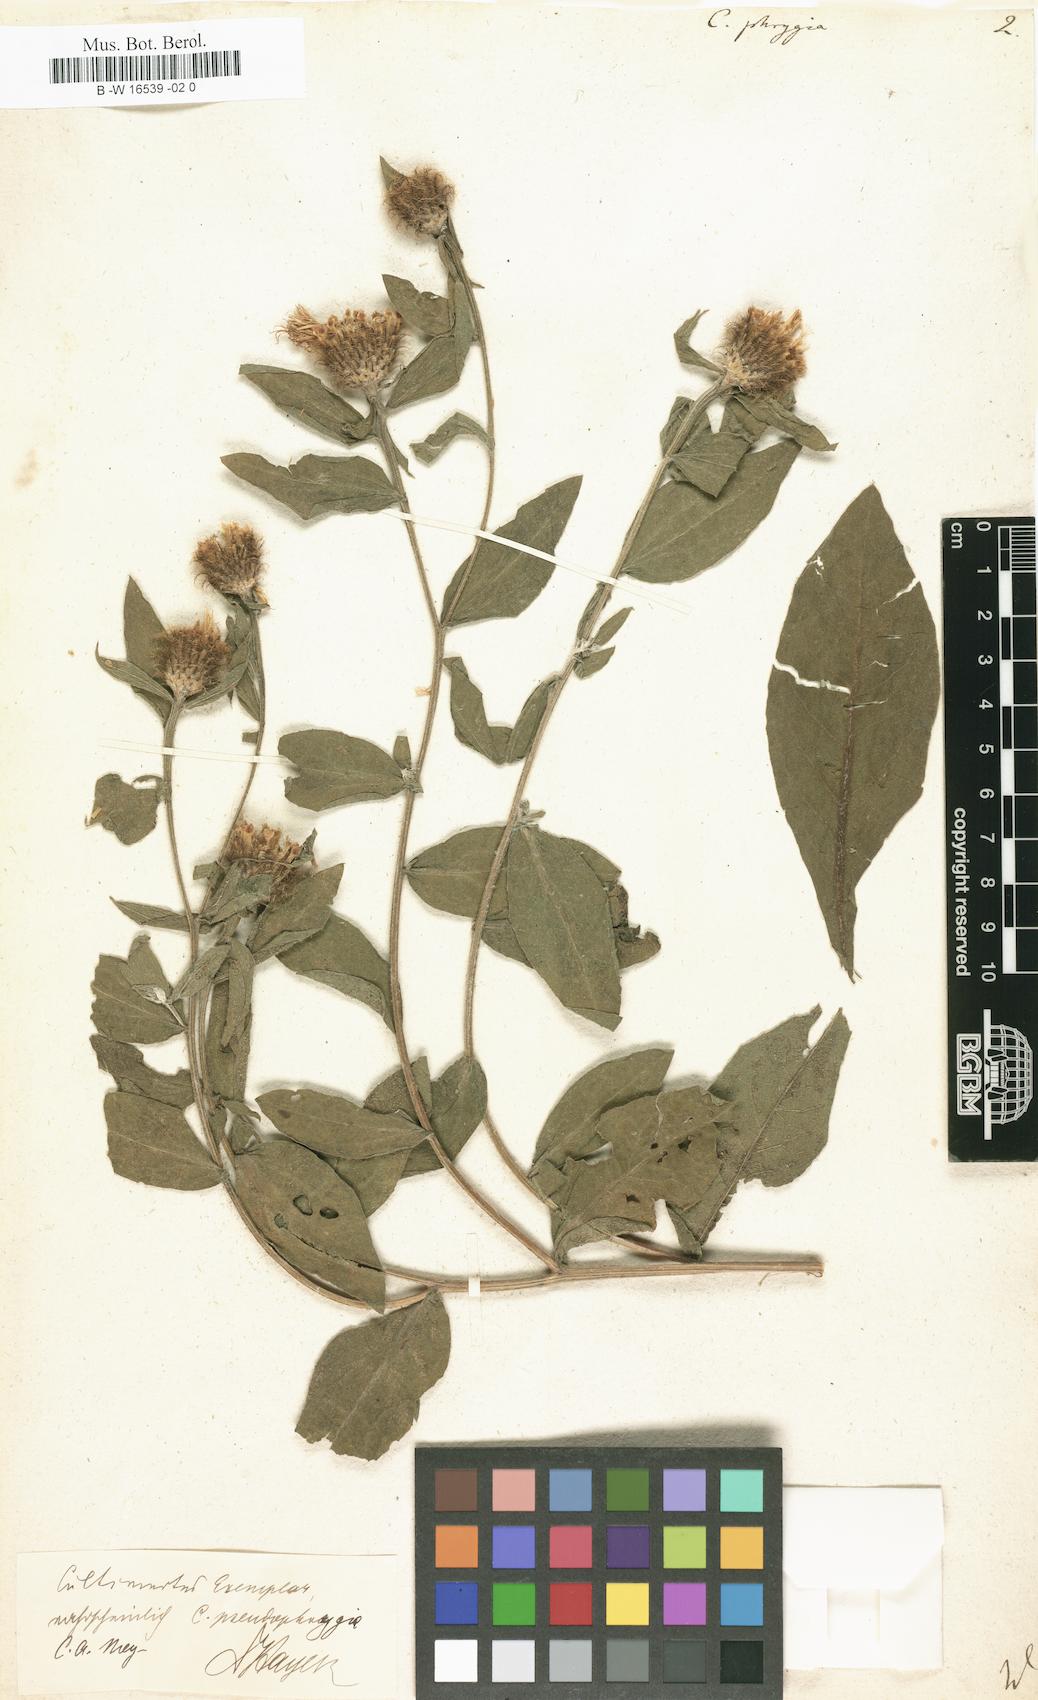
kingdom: Plantae
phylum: Tracheophyta
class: Magnoliopsida
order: Asterales
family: Asteraceae
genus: Centaurea
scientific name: Centaurea phrygia
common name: Wig knapweed
